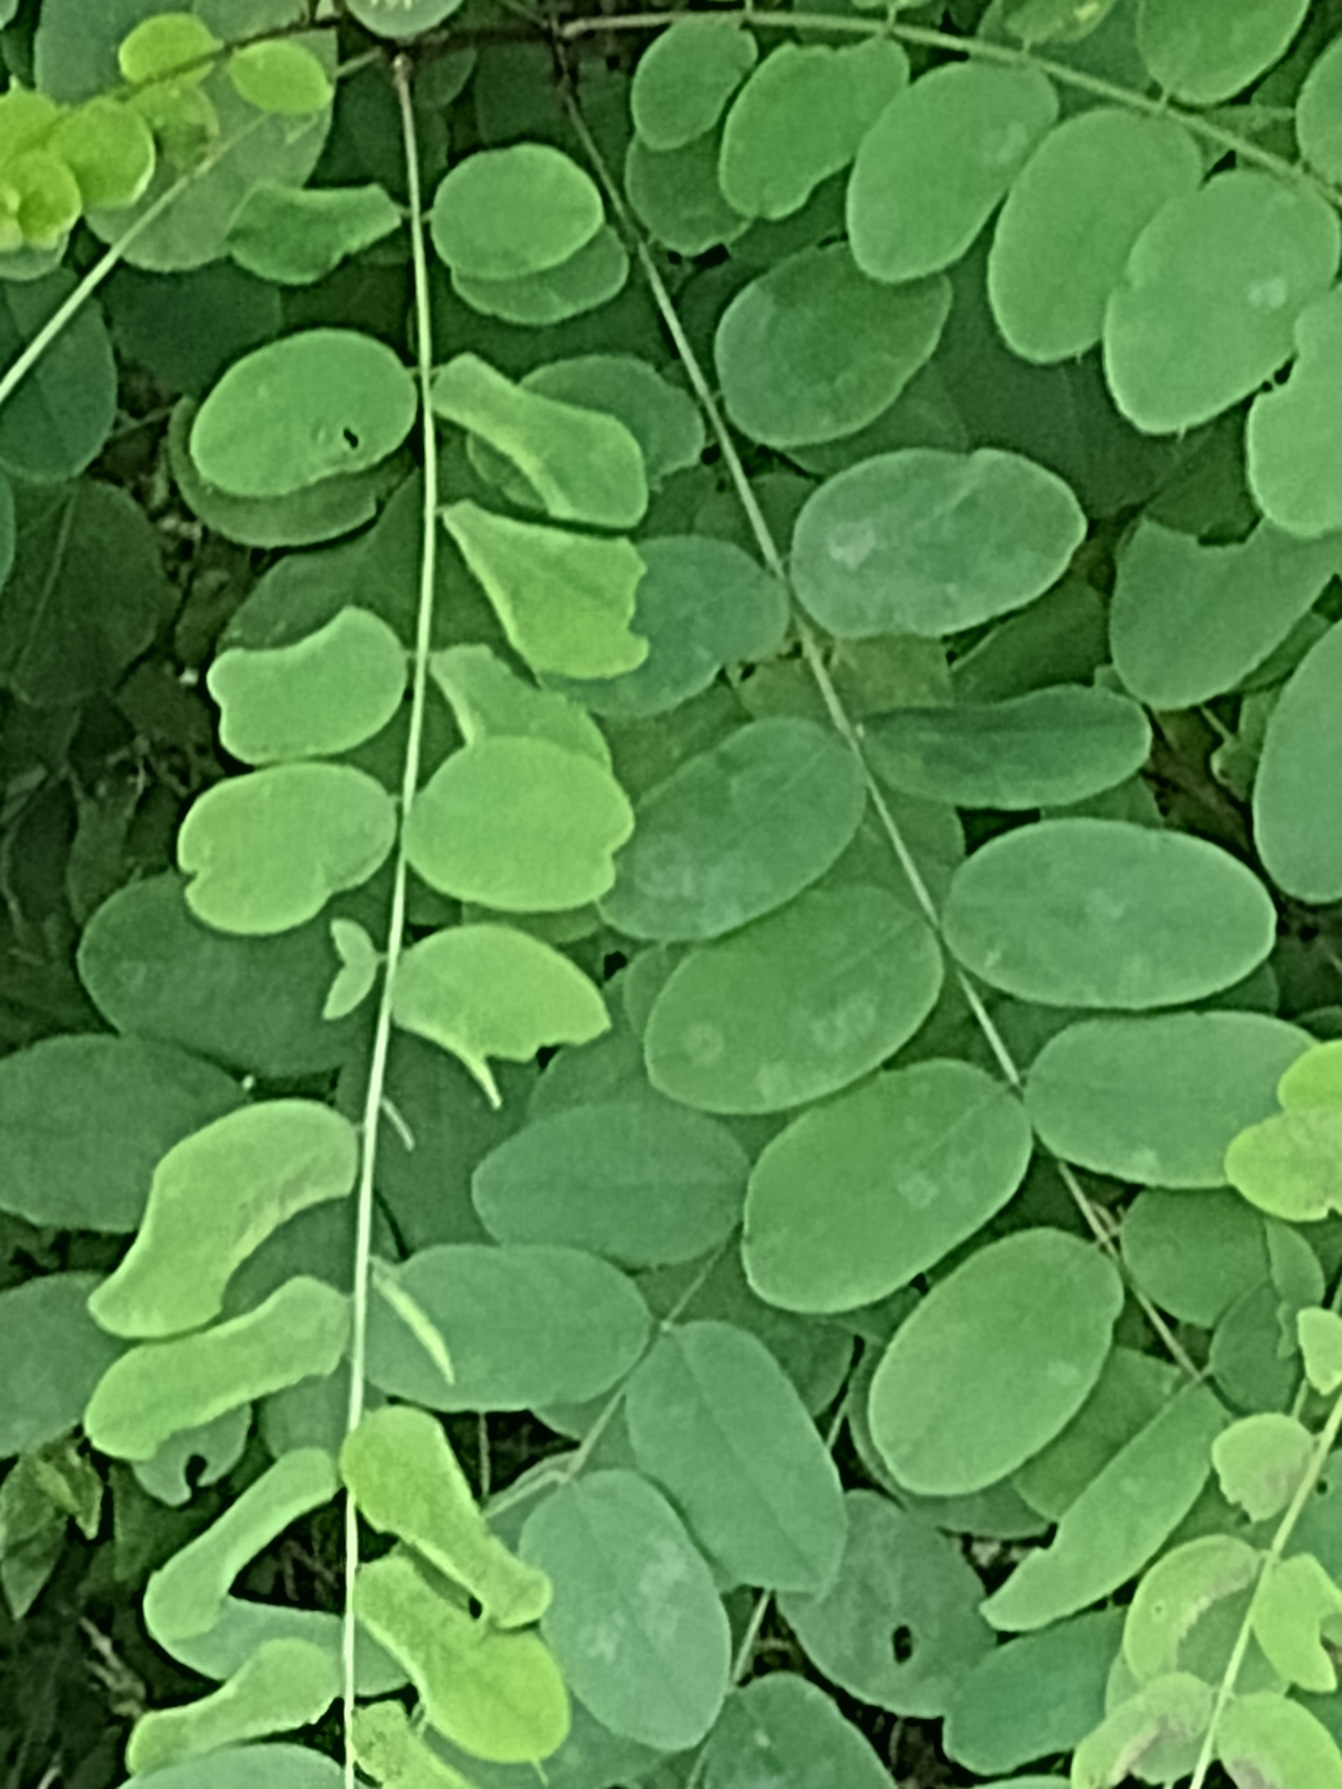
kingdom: Plantae
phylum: Tracheophyta
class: Magnoliopsida
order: Fabales
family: Fabaceae
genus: Robinia
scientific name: Robinia pseudoacacia
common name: Robinie
